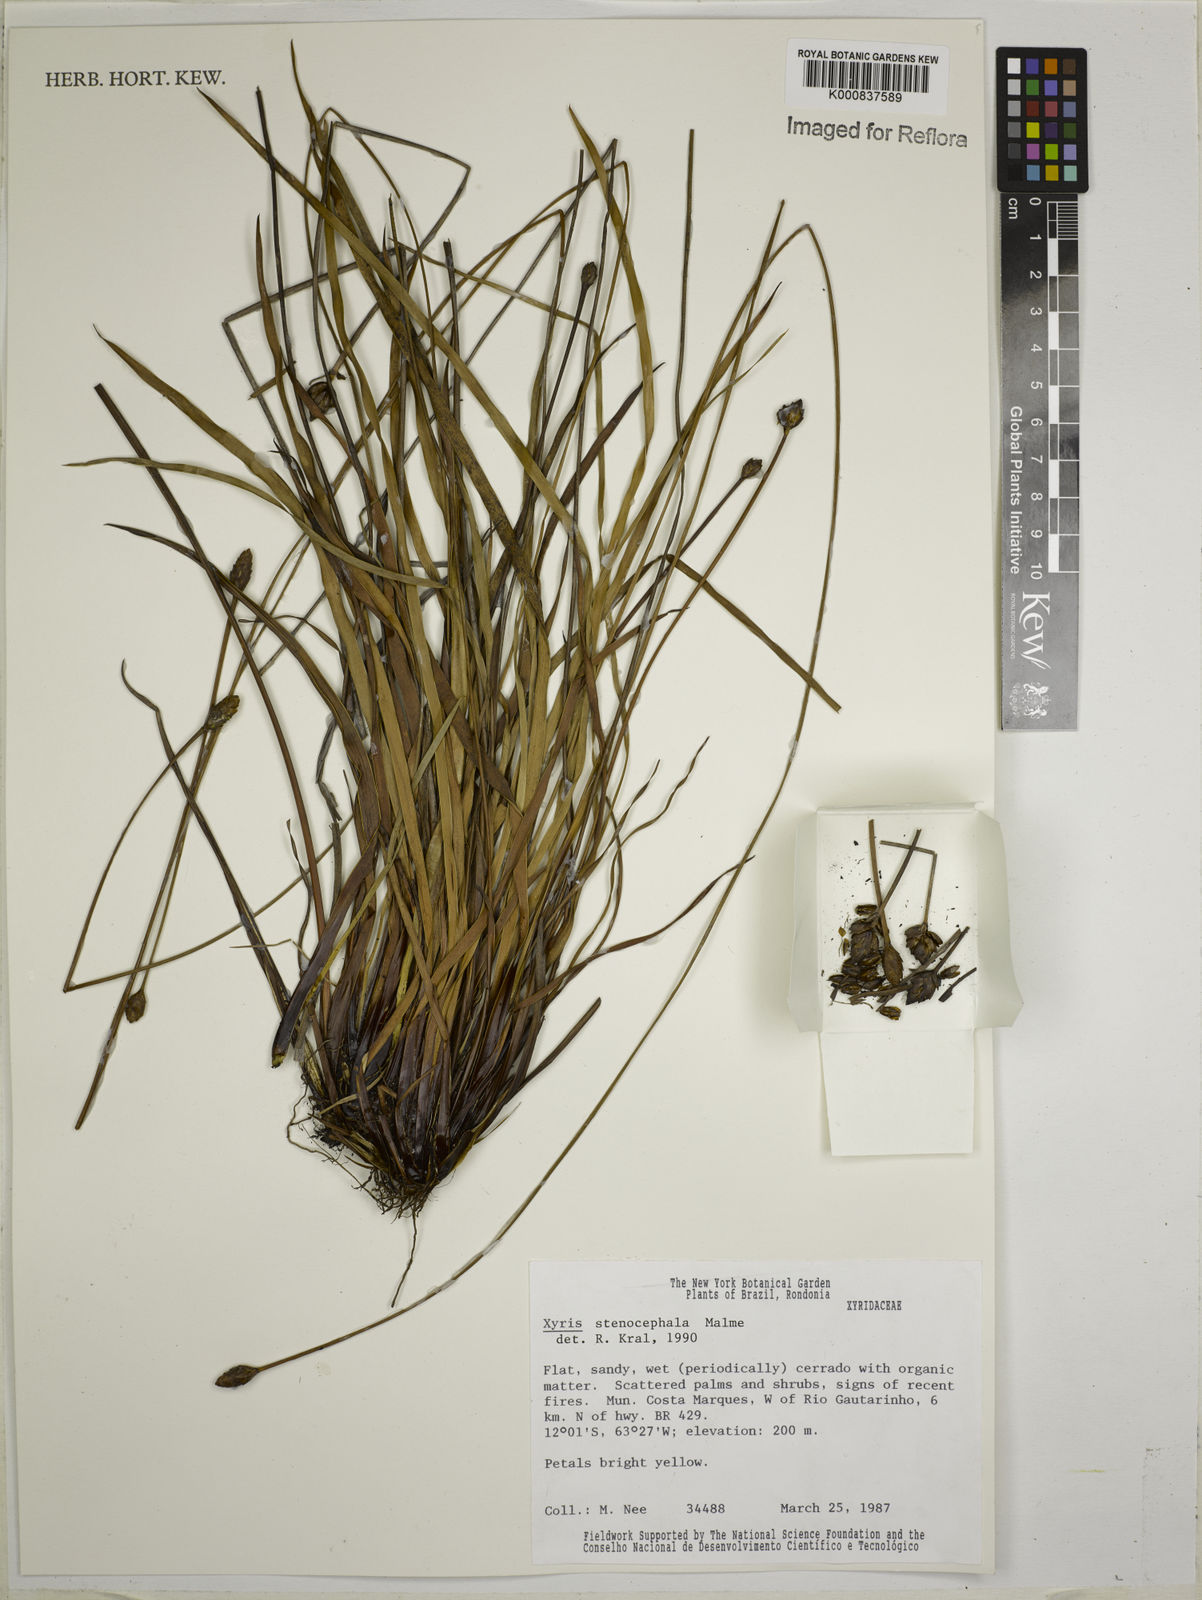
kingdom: Plantae
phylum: Tracheophyta
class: Liliopsida
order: Poales
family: Xyridaceae
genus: Xyris
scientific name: Xyris stenocephala
